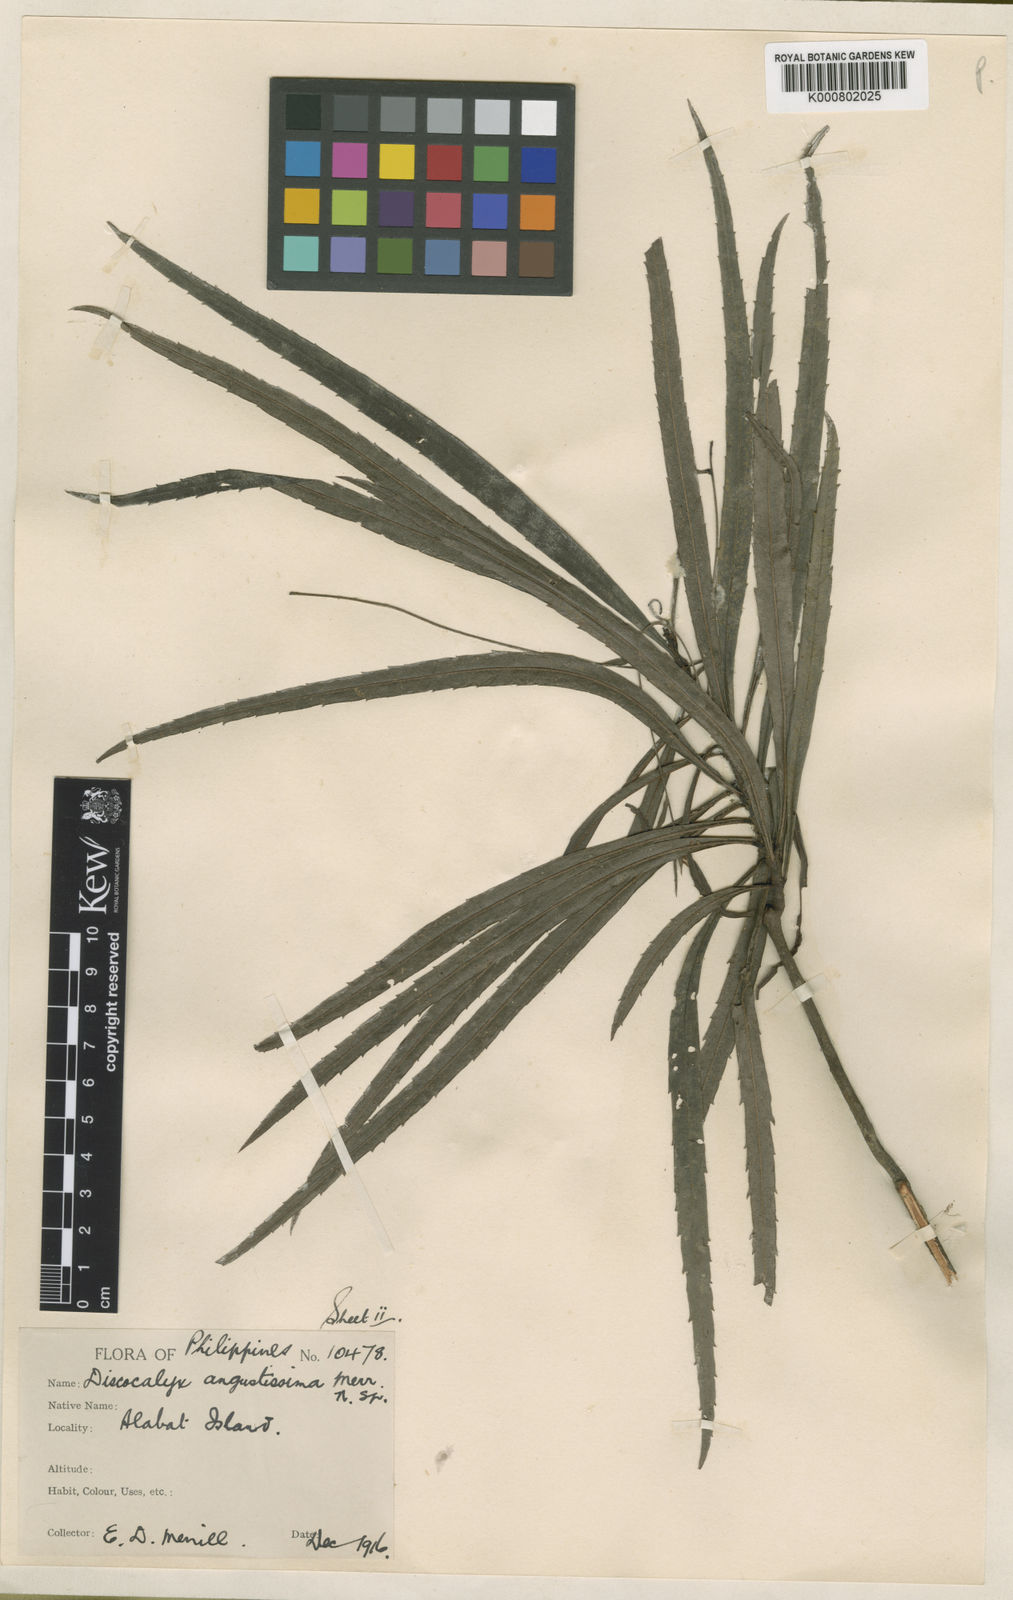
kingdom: Plantae
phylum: Tracheophyta
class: Magnoliopsida
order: Ericales
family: Primulaceae
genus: Discocalyx
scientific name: Discocalyx angustissima
